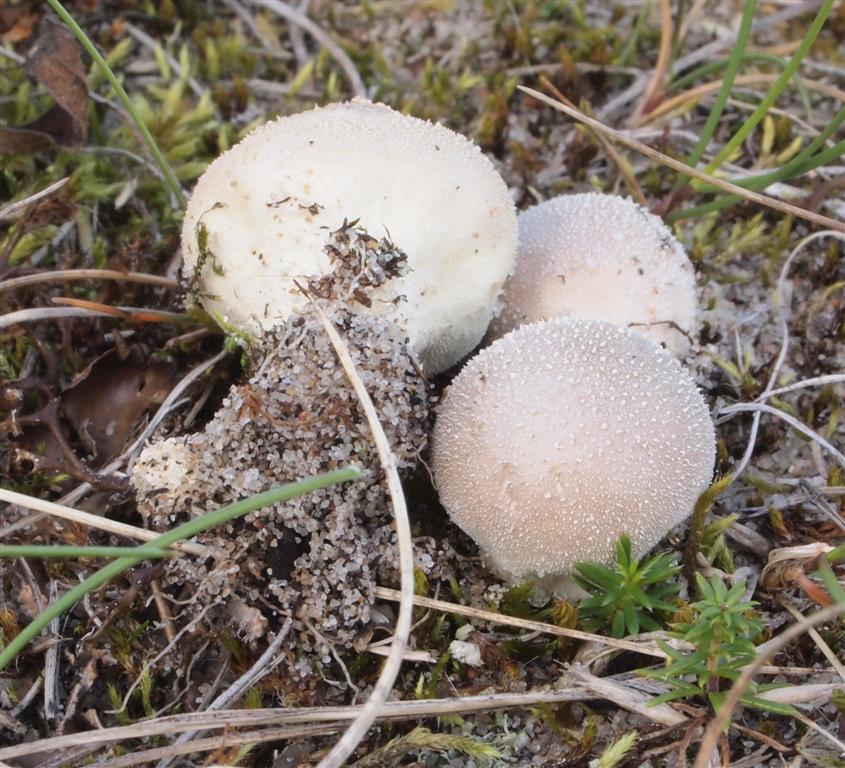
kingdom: Fungi
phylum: Basidiomycota
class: Agaricomycetes
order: Agaricales
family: Lycoperdaceae
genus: Lycoperdon
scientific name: Lycoperdon lividum
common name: mark-støvbold
